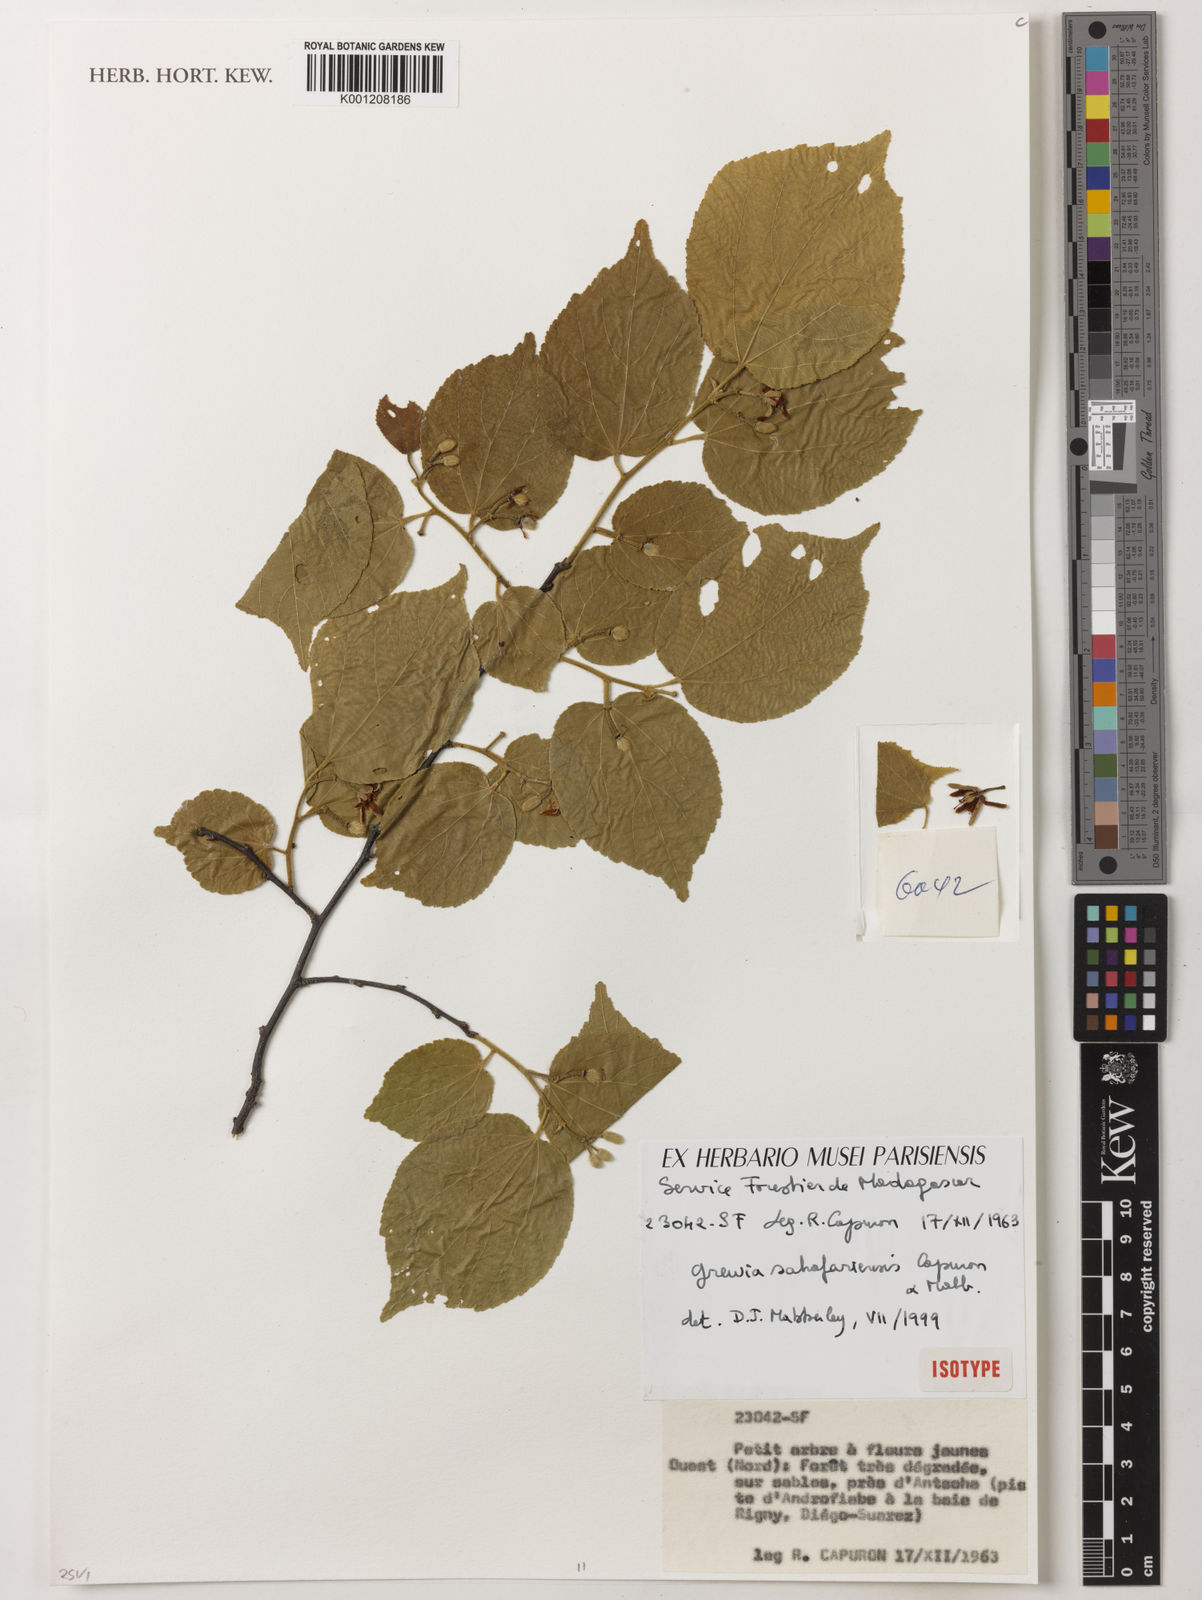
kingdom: Plantae
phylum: Tracheophyta
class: Magnoliopsida
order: Malvales
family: Malvaceae
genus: Grewia
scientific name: Grewia sahafariensis
